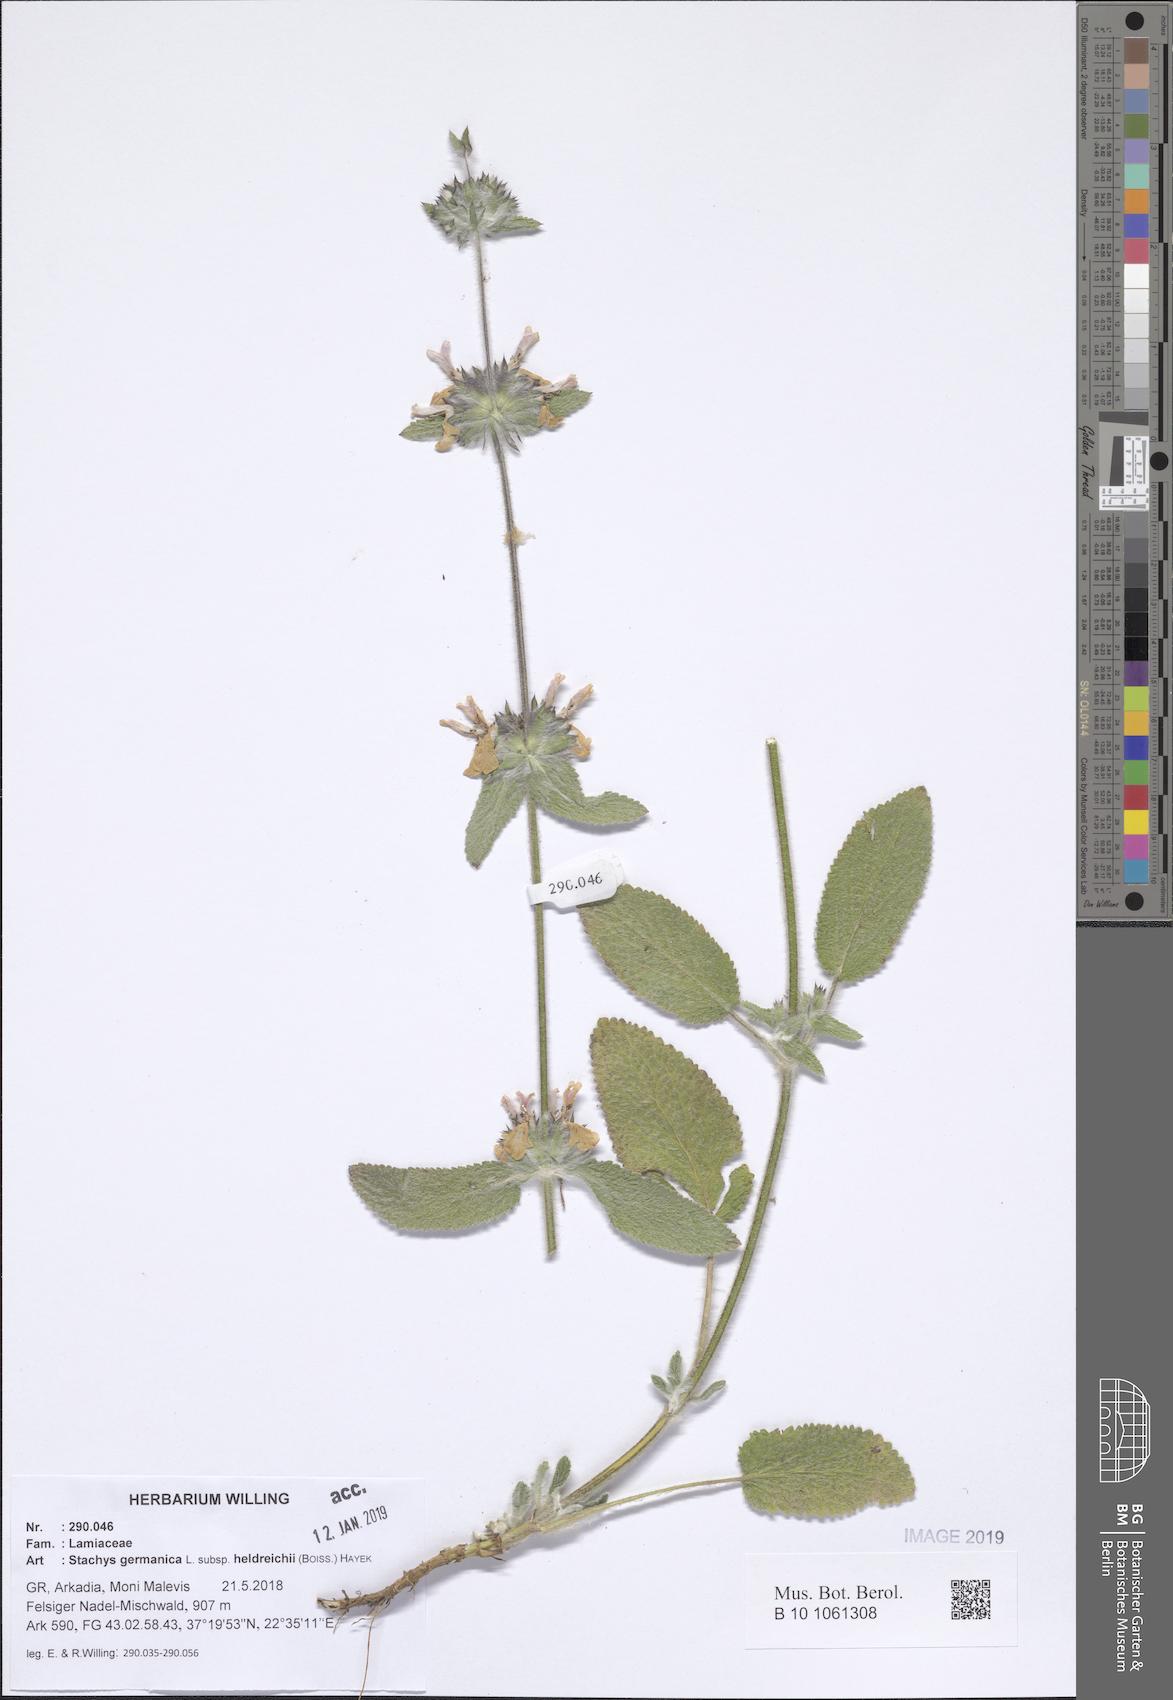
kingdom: Plantae
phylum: Tracheophyta
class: Magnoliopsida
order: Lamiales
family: Lamiaceae
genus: Stachys
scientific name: Stachys germanica
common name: Downy woundwort
